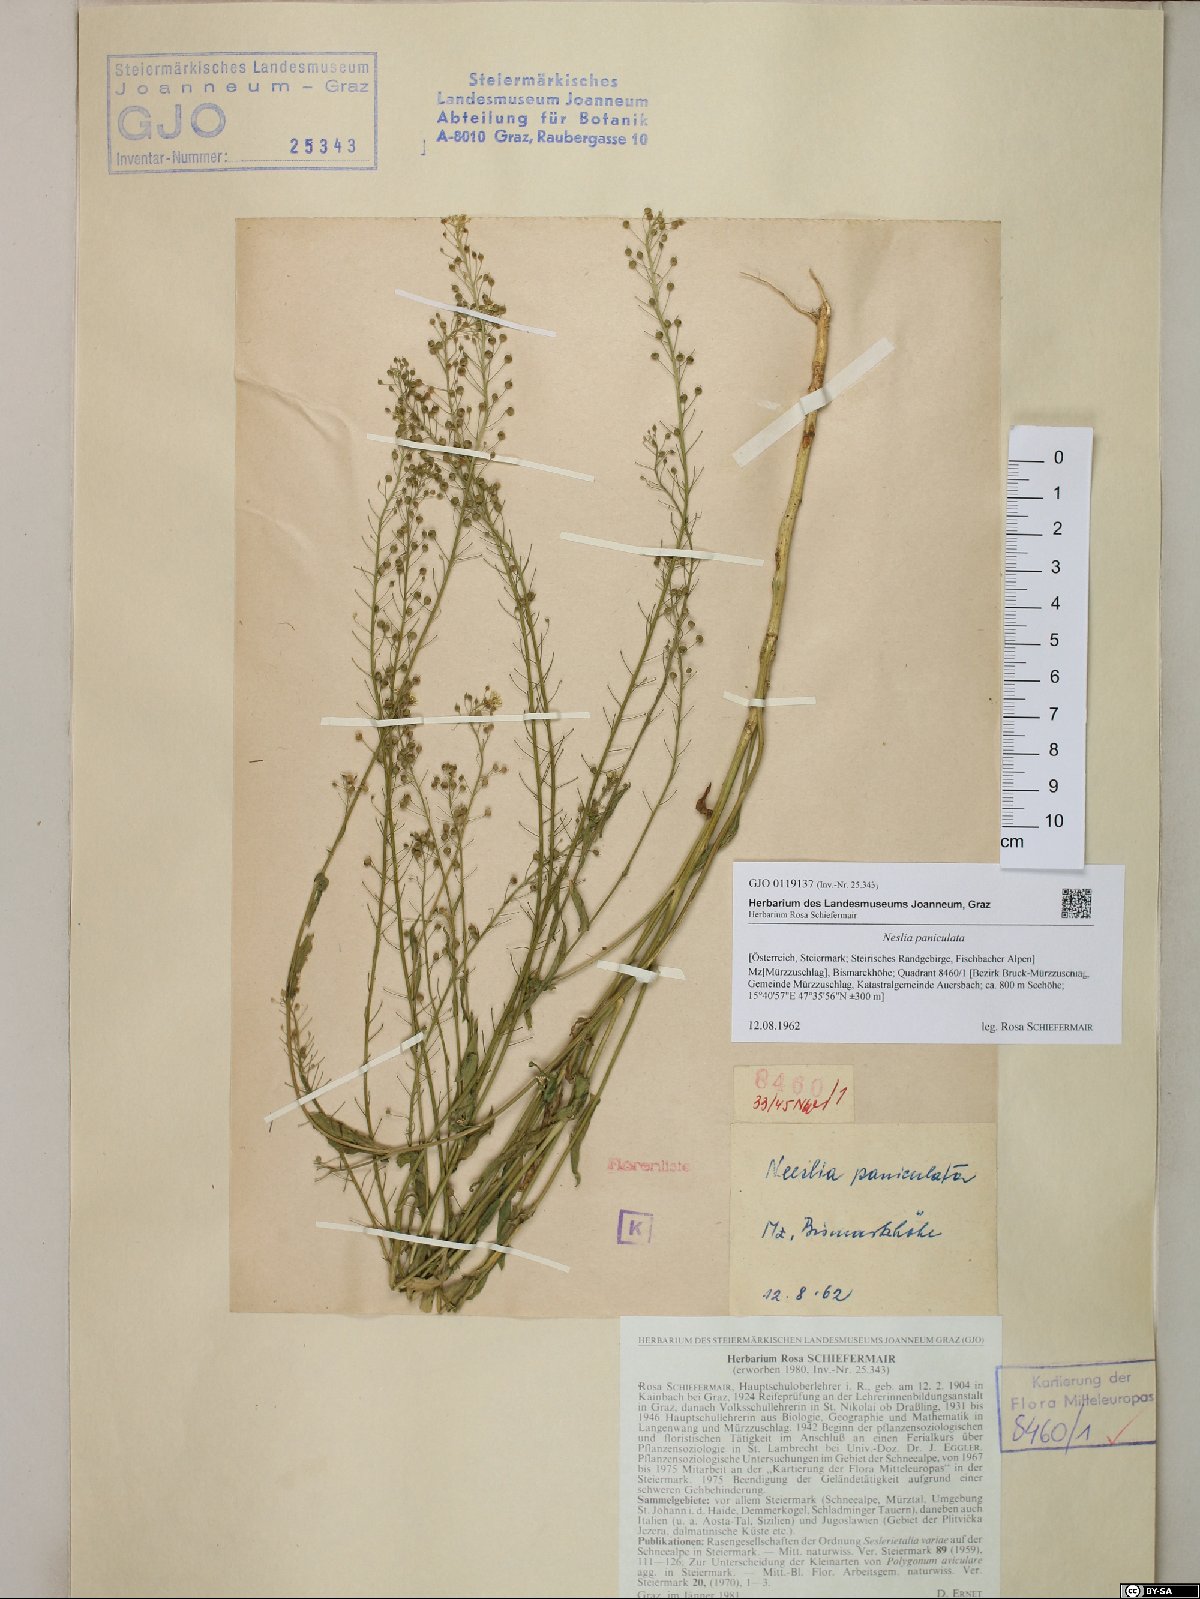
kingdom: Plantae
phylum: Tracheophyta
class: Magnoliopsida
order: Brassicales
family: Brassicaceae
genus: Neslia
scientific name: Neslia paniculata
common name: Ball mustard
